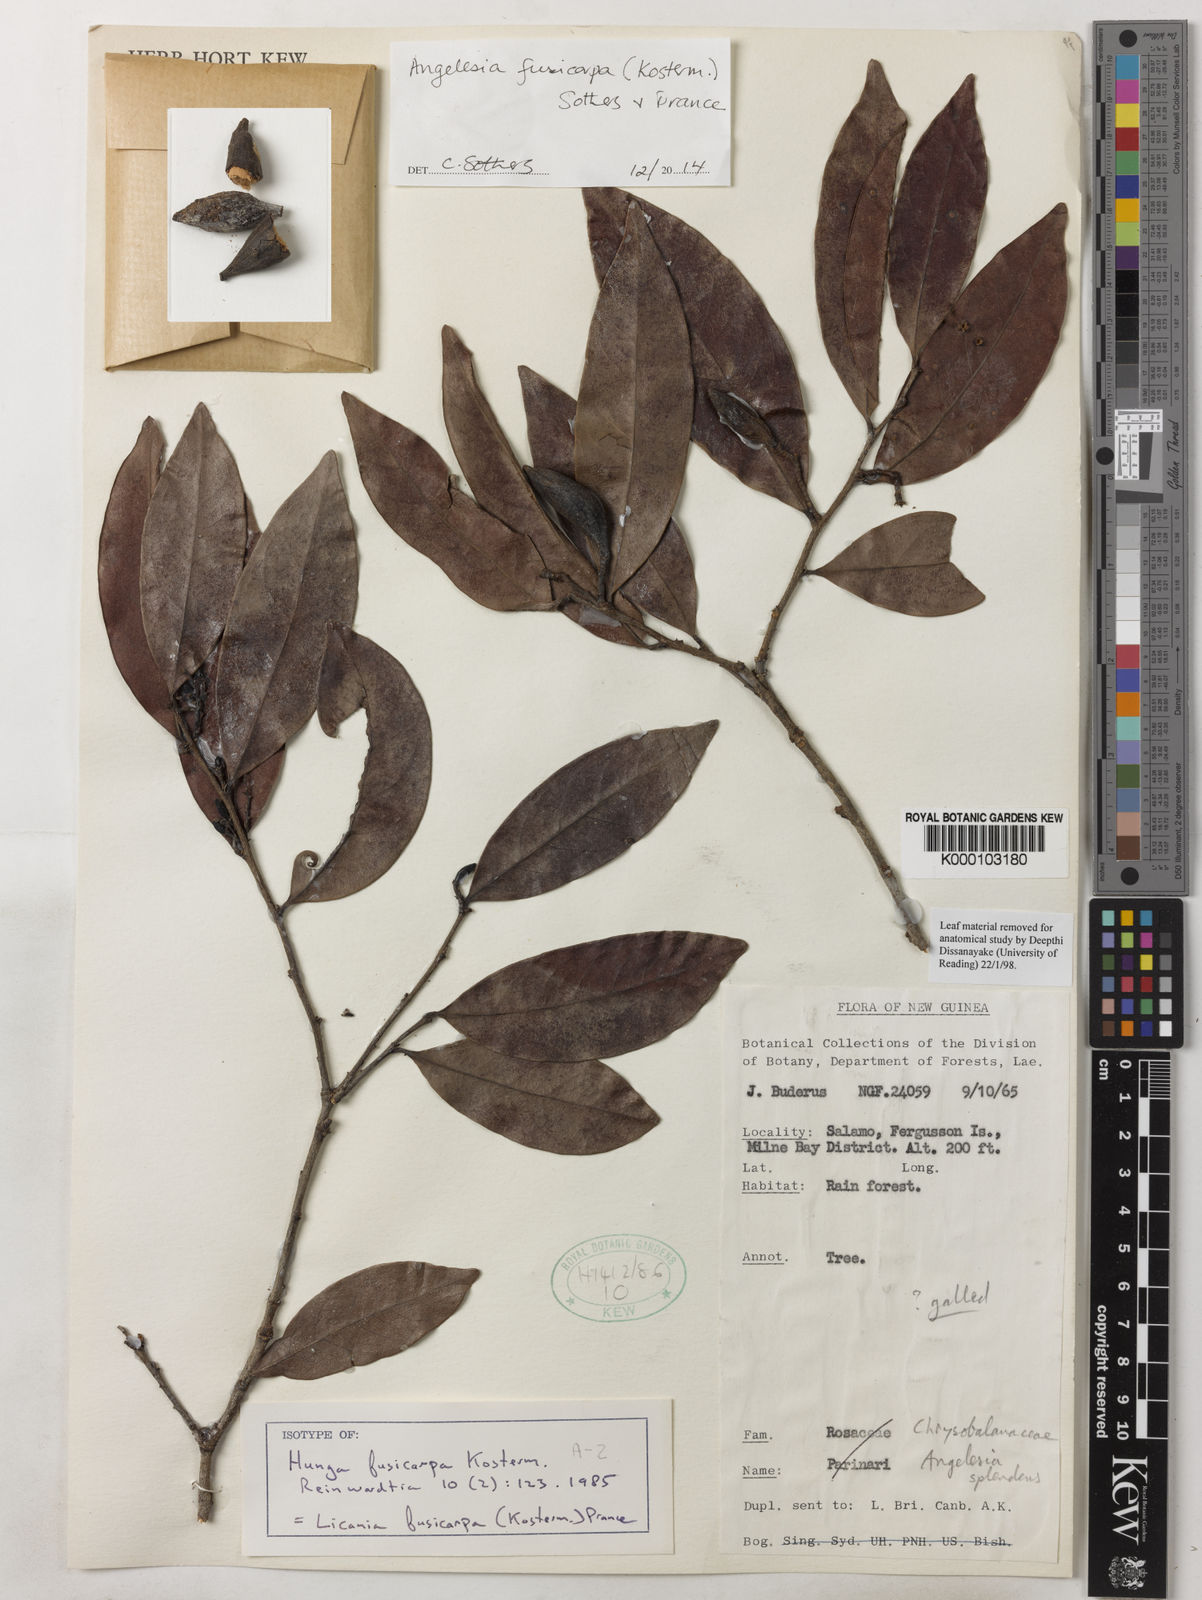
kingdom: Plantae
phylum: Tracheophyta
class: Magnoliopsida
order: Malpighiales
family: Chrysobalanaceae
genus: Angelesia
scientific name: Angelesia fusicarpa
